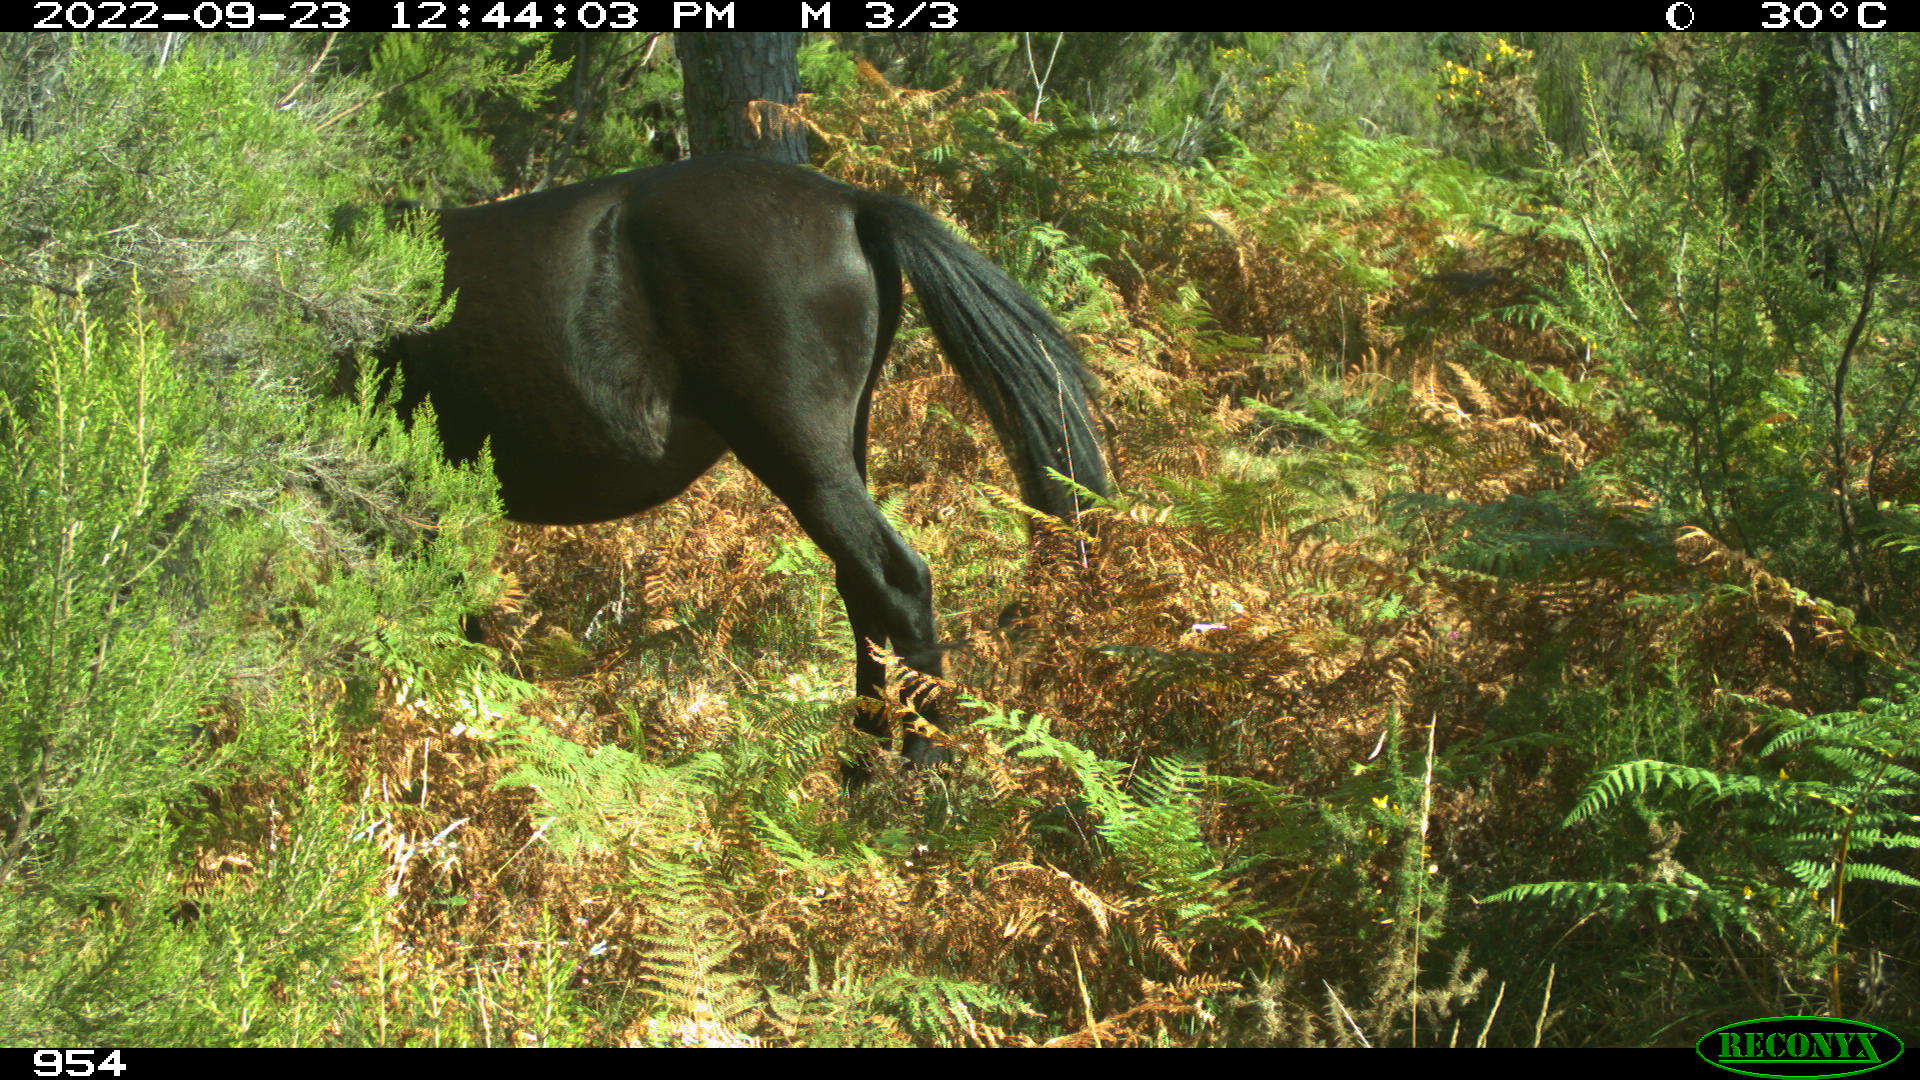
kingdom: Animalia
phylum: Chordata
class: Mammalia
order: Perissodactyla
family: Equidae
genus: Equus
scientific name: Equus caballus
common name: Horse
